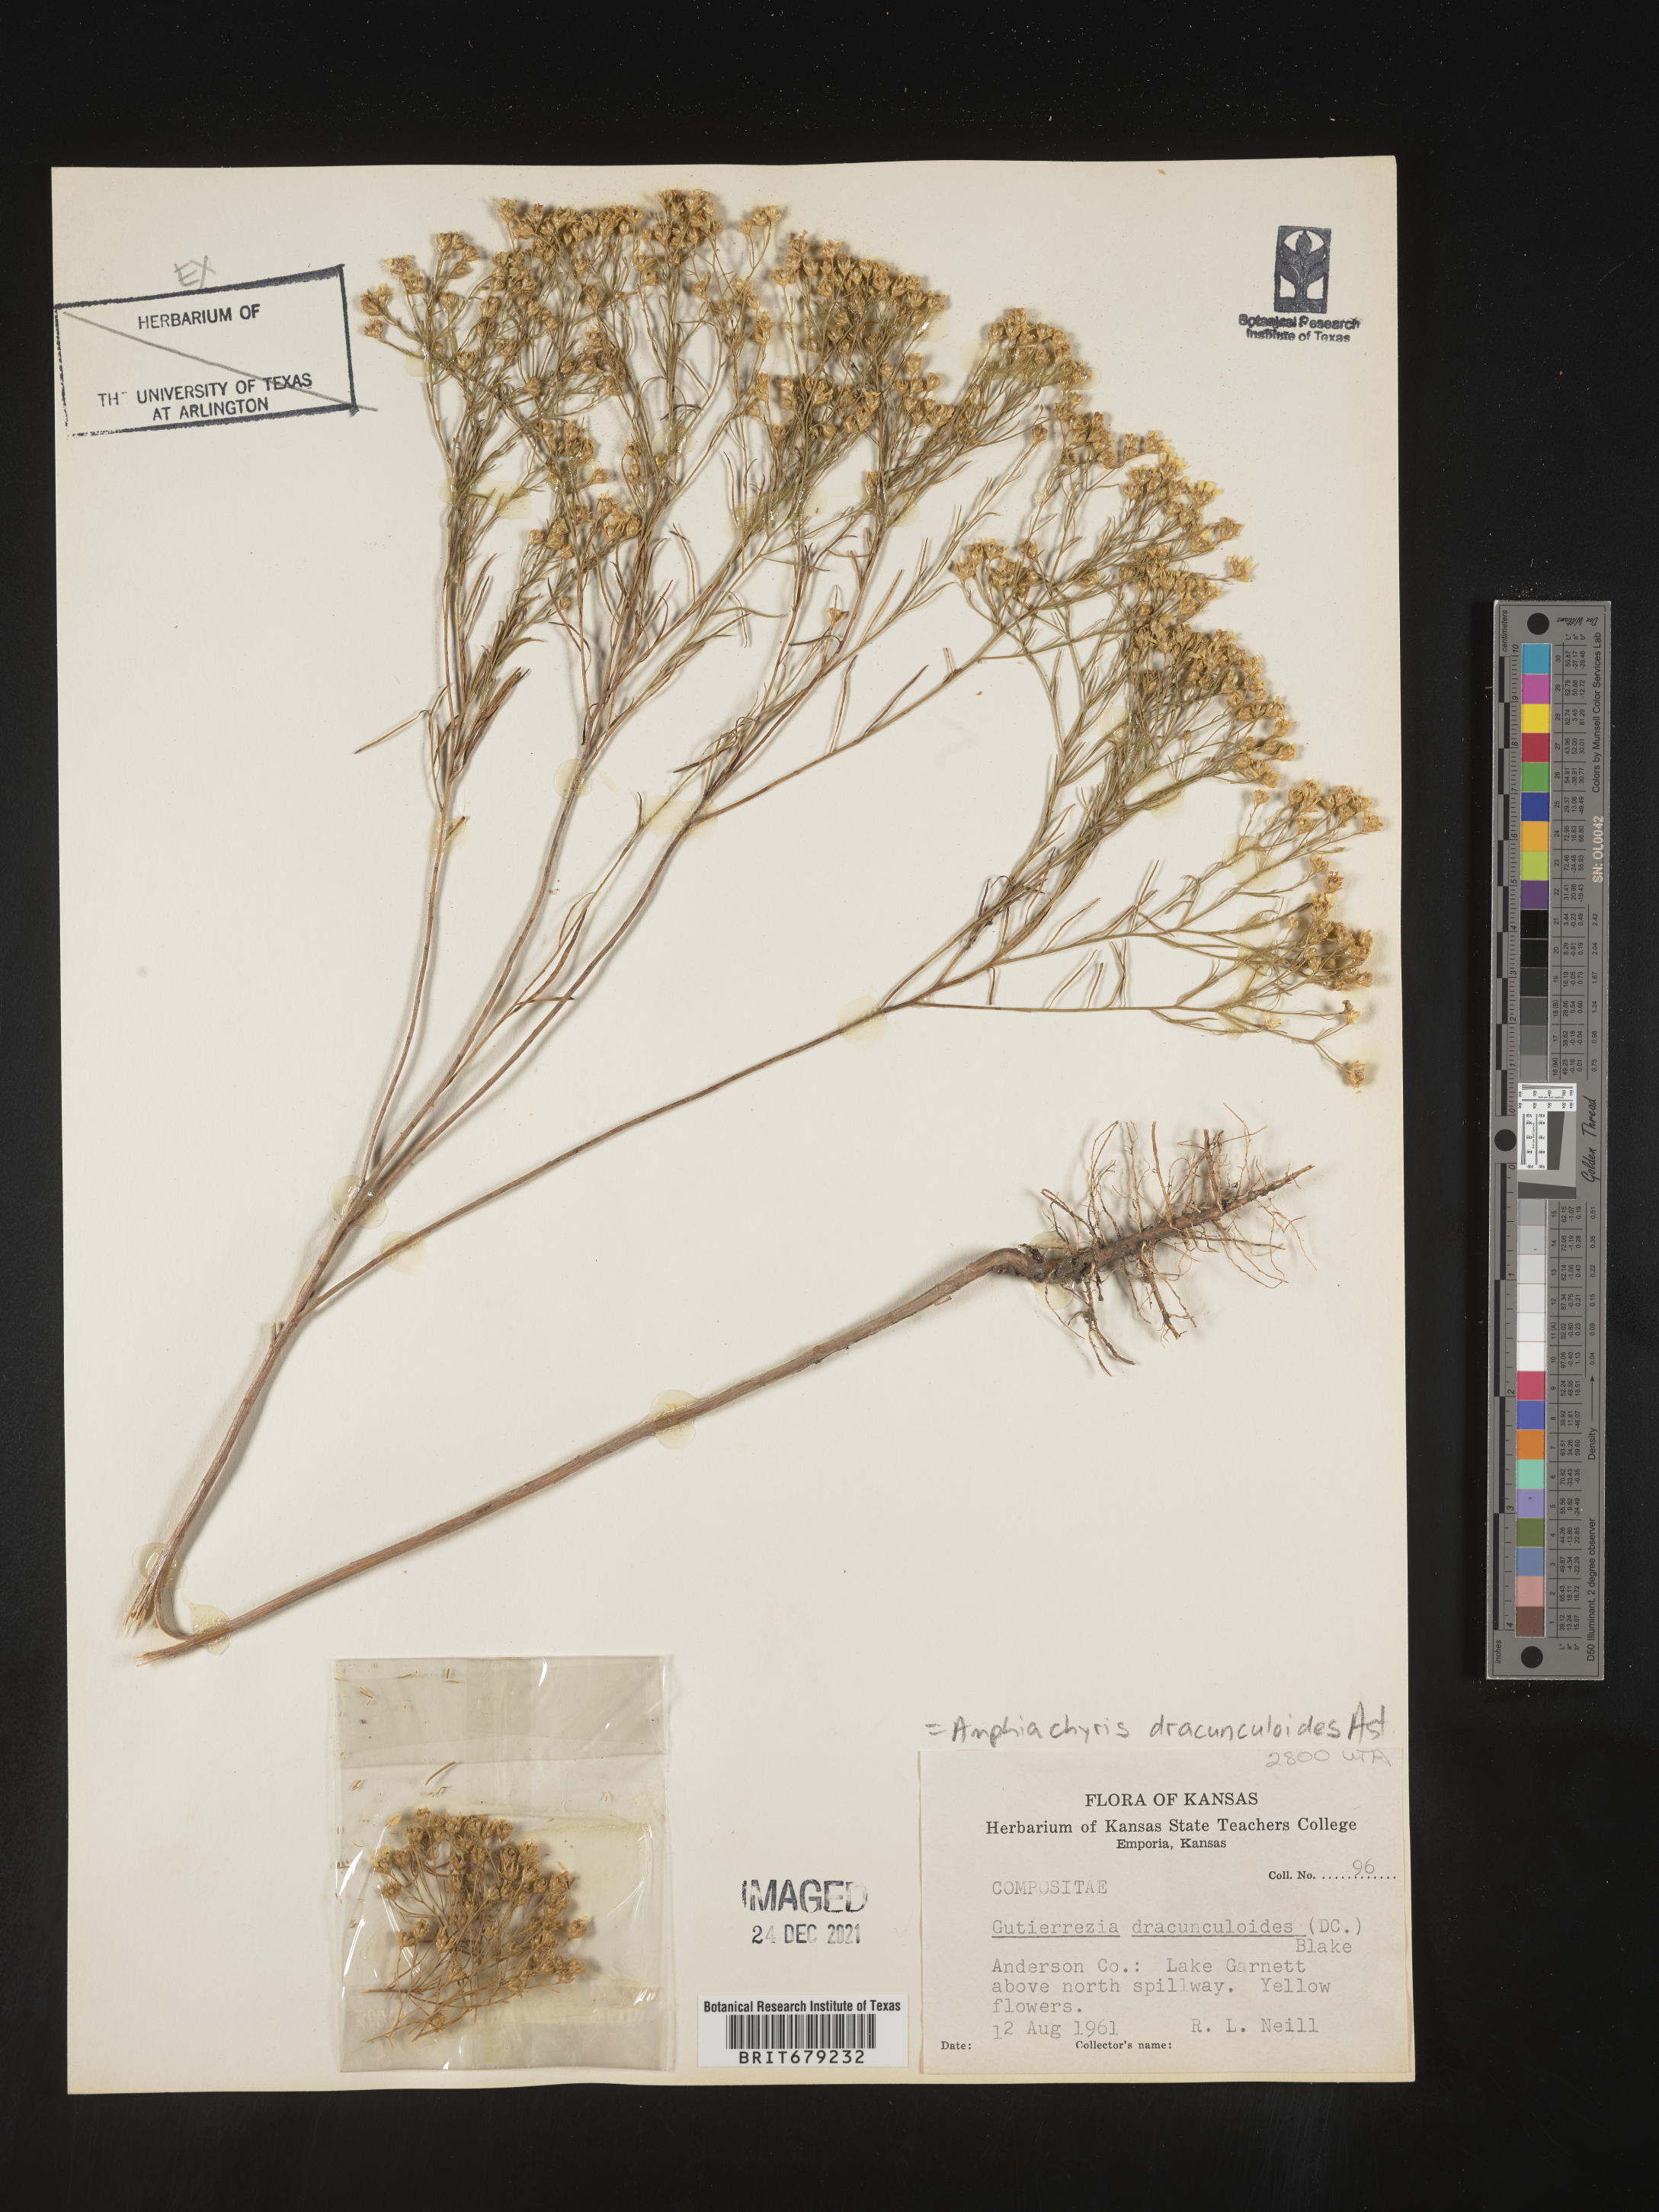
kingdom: Plantae
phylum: Tracheophyta
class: Magnoliopsida
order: Asterales
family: Asteraceae
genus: Amphiachyris
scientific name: Amphiachyris dracunculoides
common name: Broomweed
